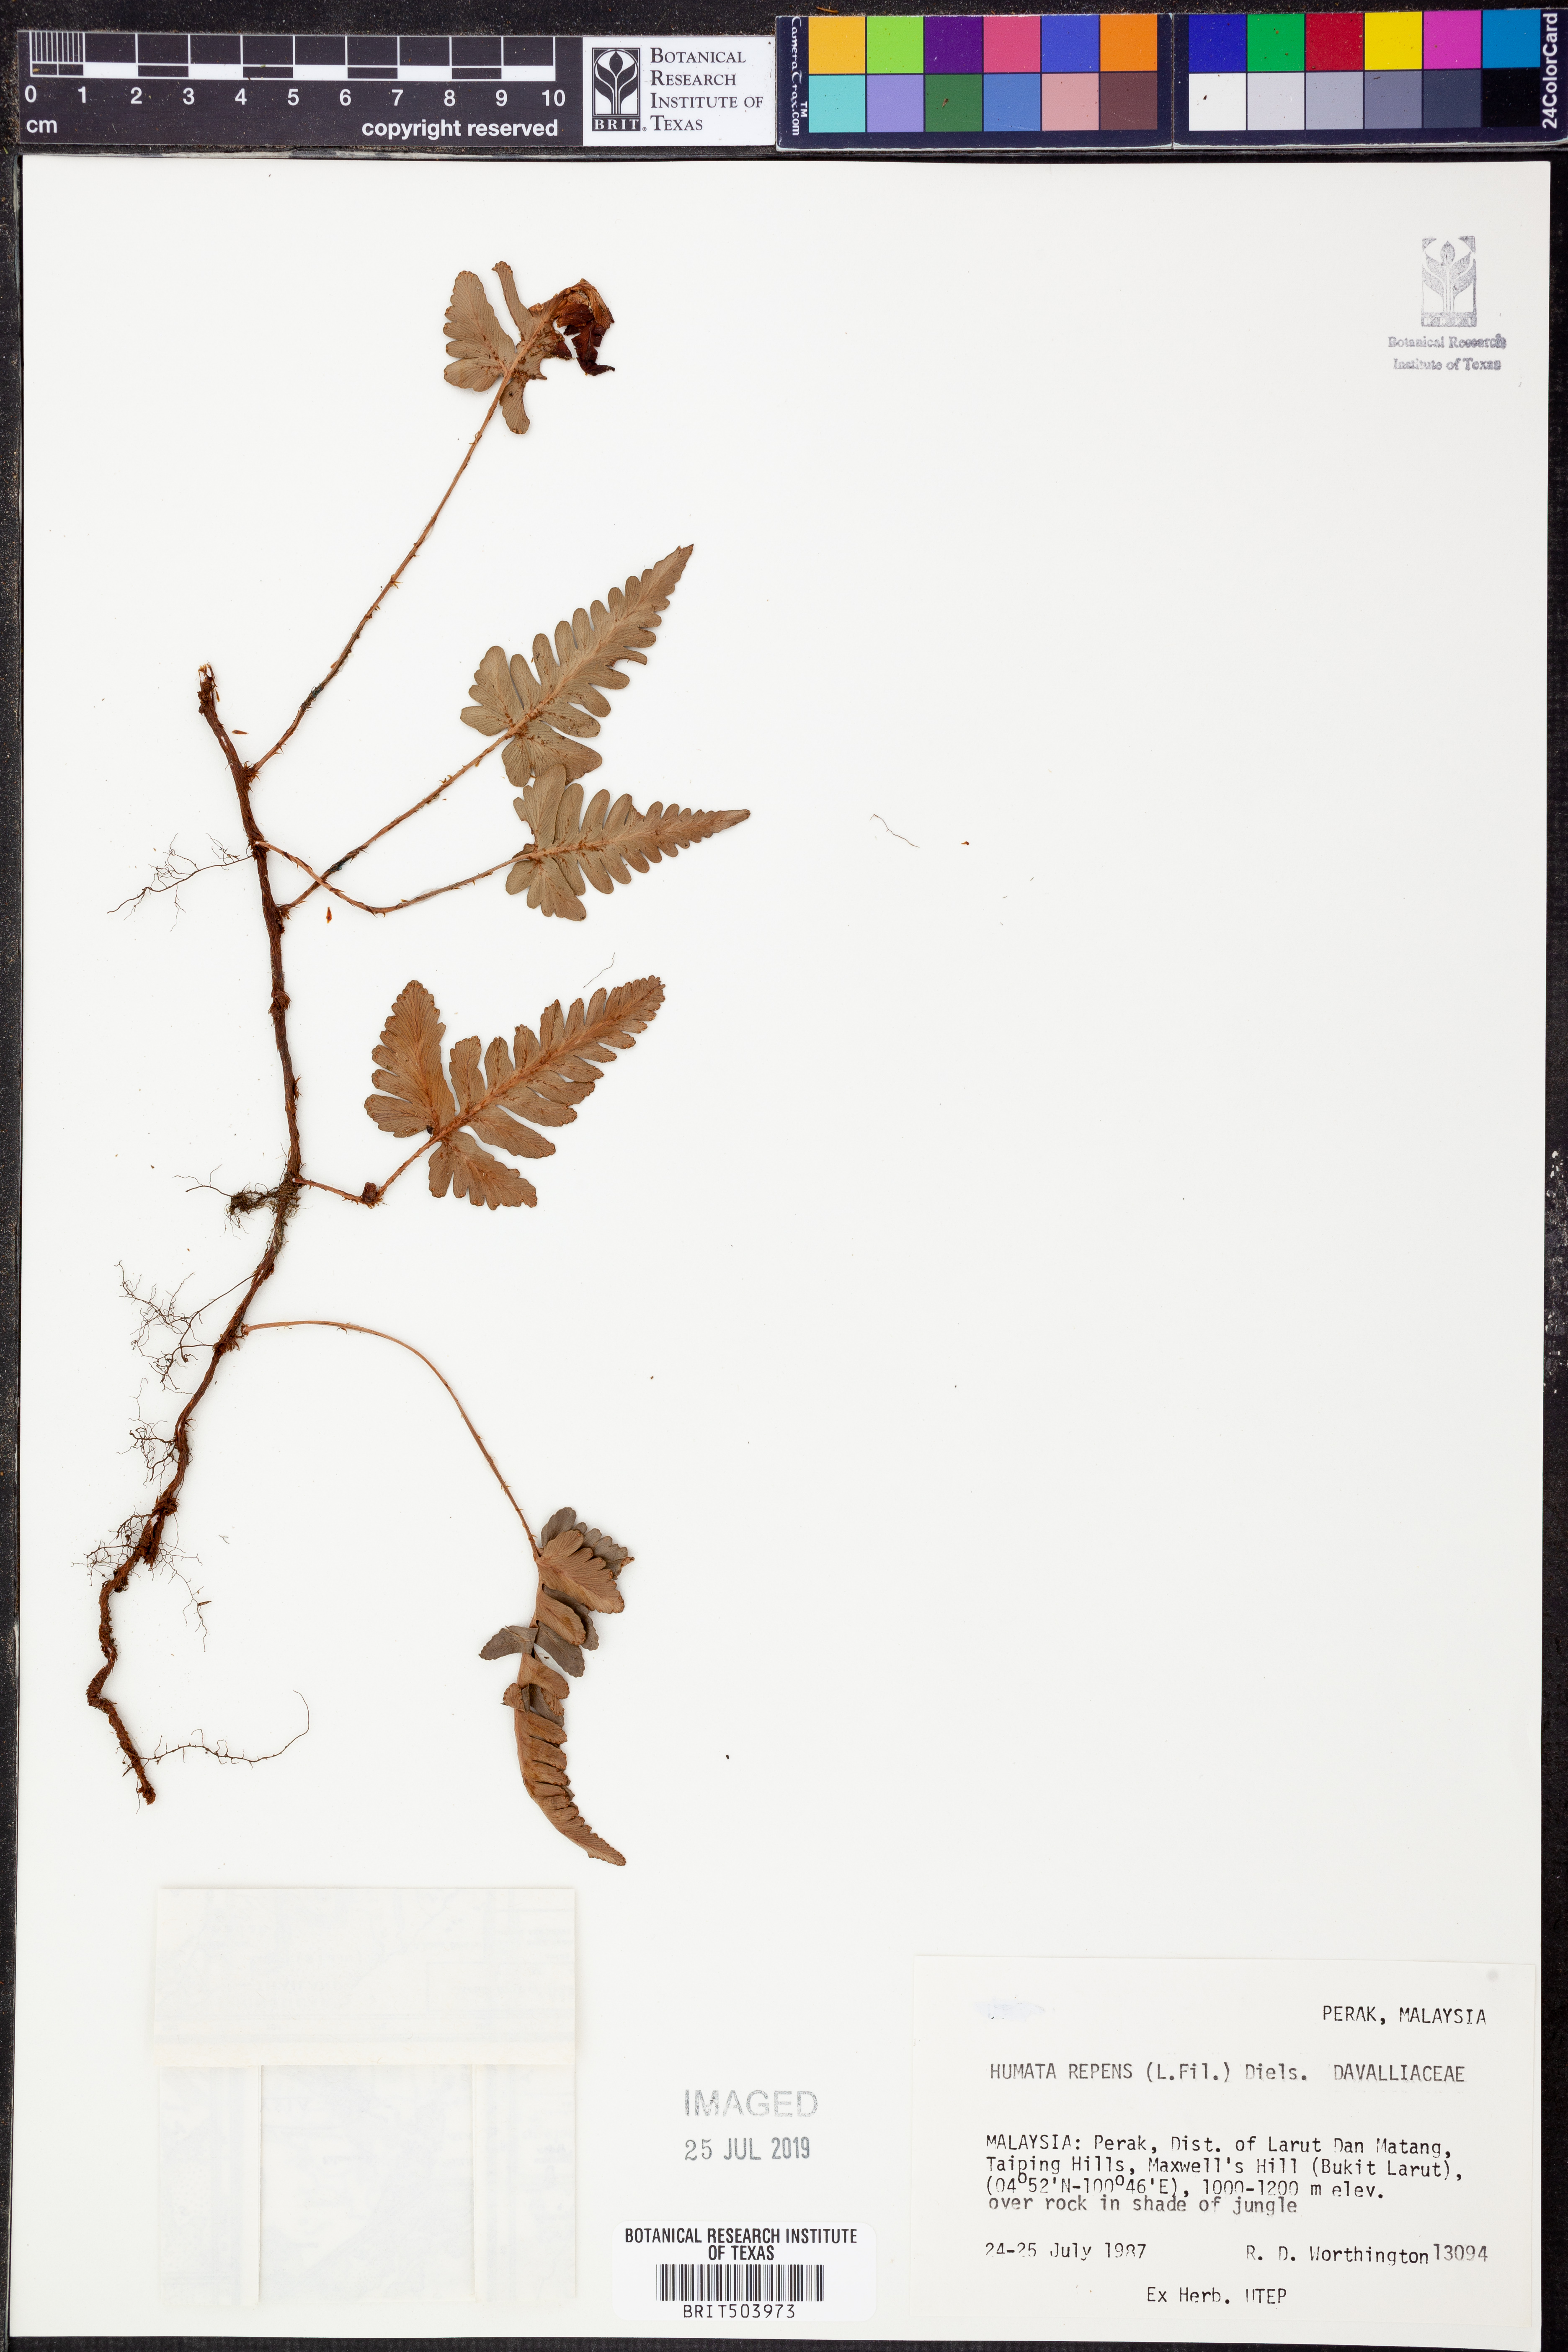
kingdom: Plantae
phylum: Tracheophyta
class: Polypodiopsida
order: Polypodiales
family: Davalliaceae
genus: Davallia
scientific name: Davallia repens
